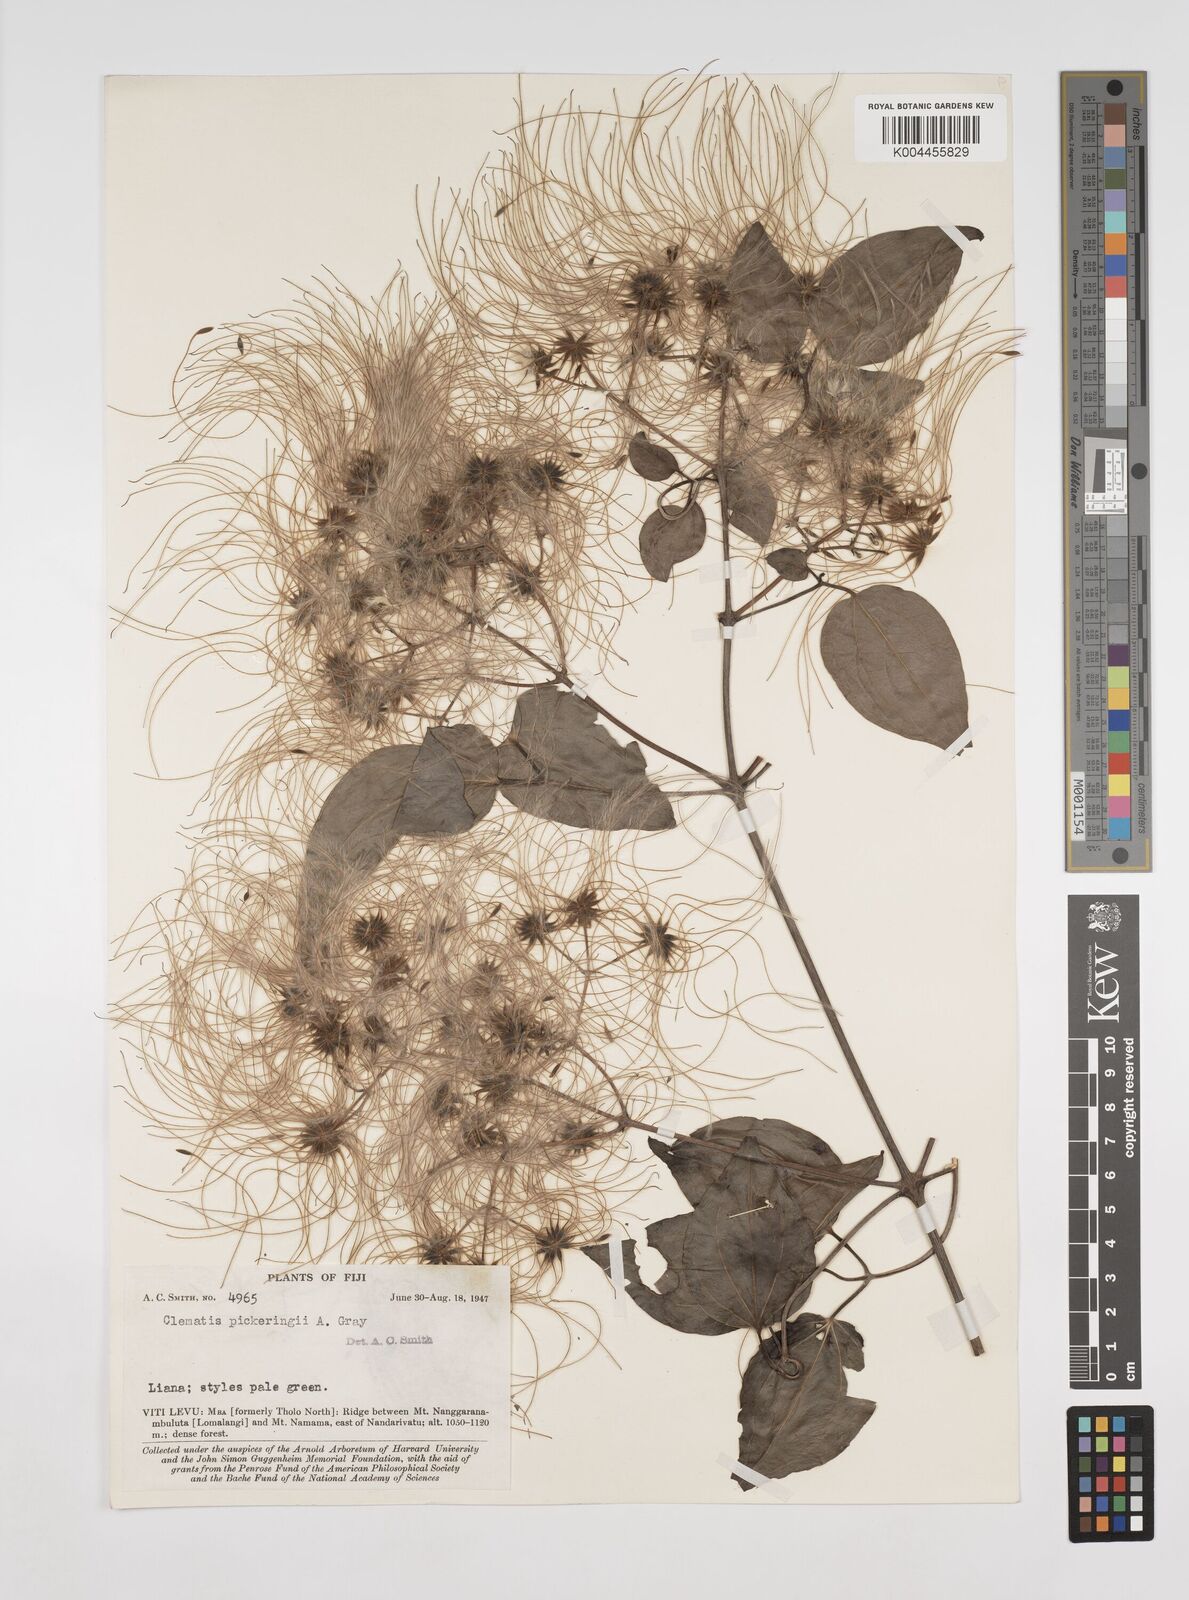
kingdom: Plantae
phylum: Tracheophyta
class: Magnoliopsida
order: Ranunculales
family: Ranunculaceae
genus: Clematis
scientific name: Clematis pickeringii
